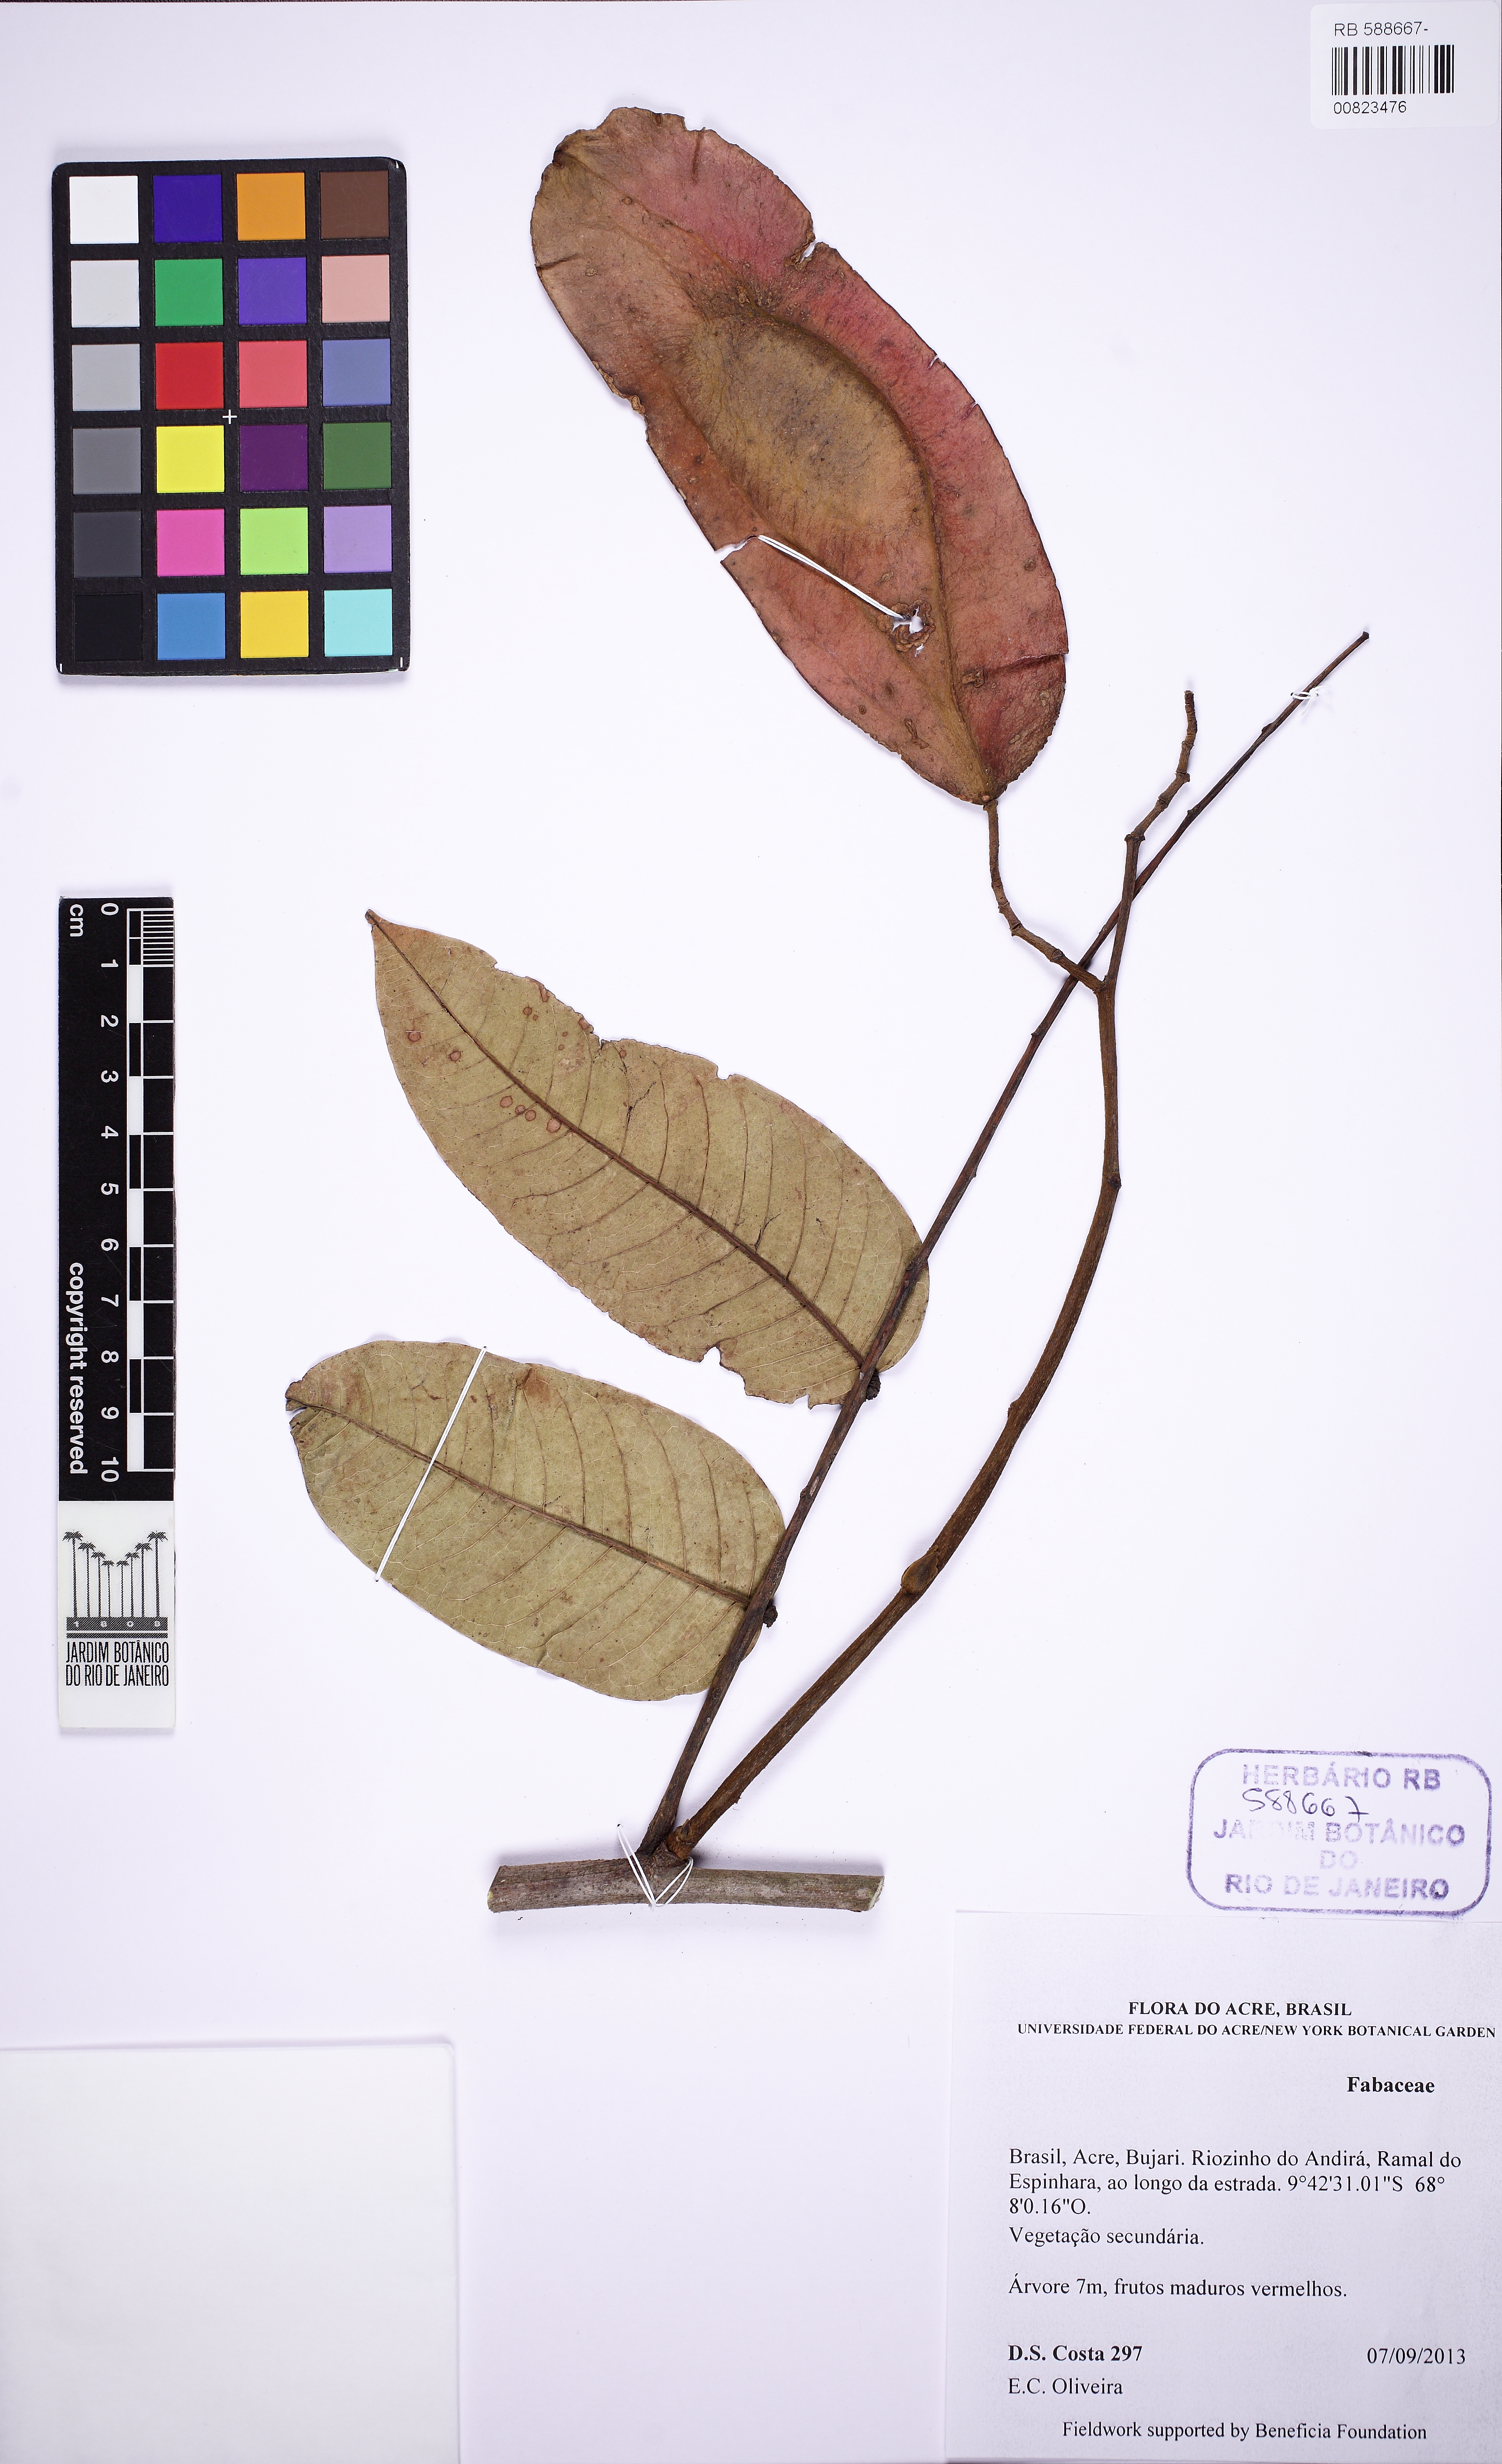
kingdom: Plantae
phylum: Tracheophyta
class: Magnoliopsida
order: Fabales
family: Fabaceae
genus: Martiodendron
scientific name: Martiodendron elatum
